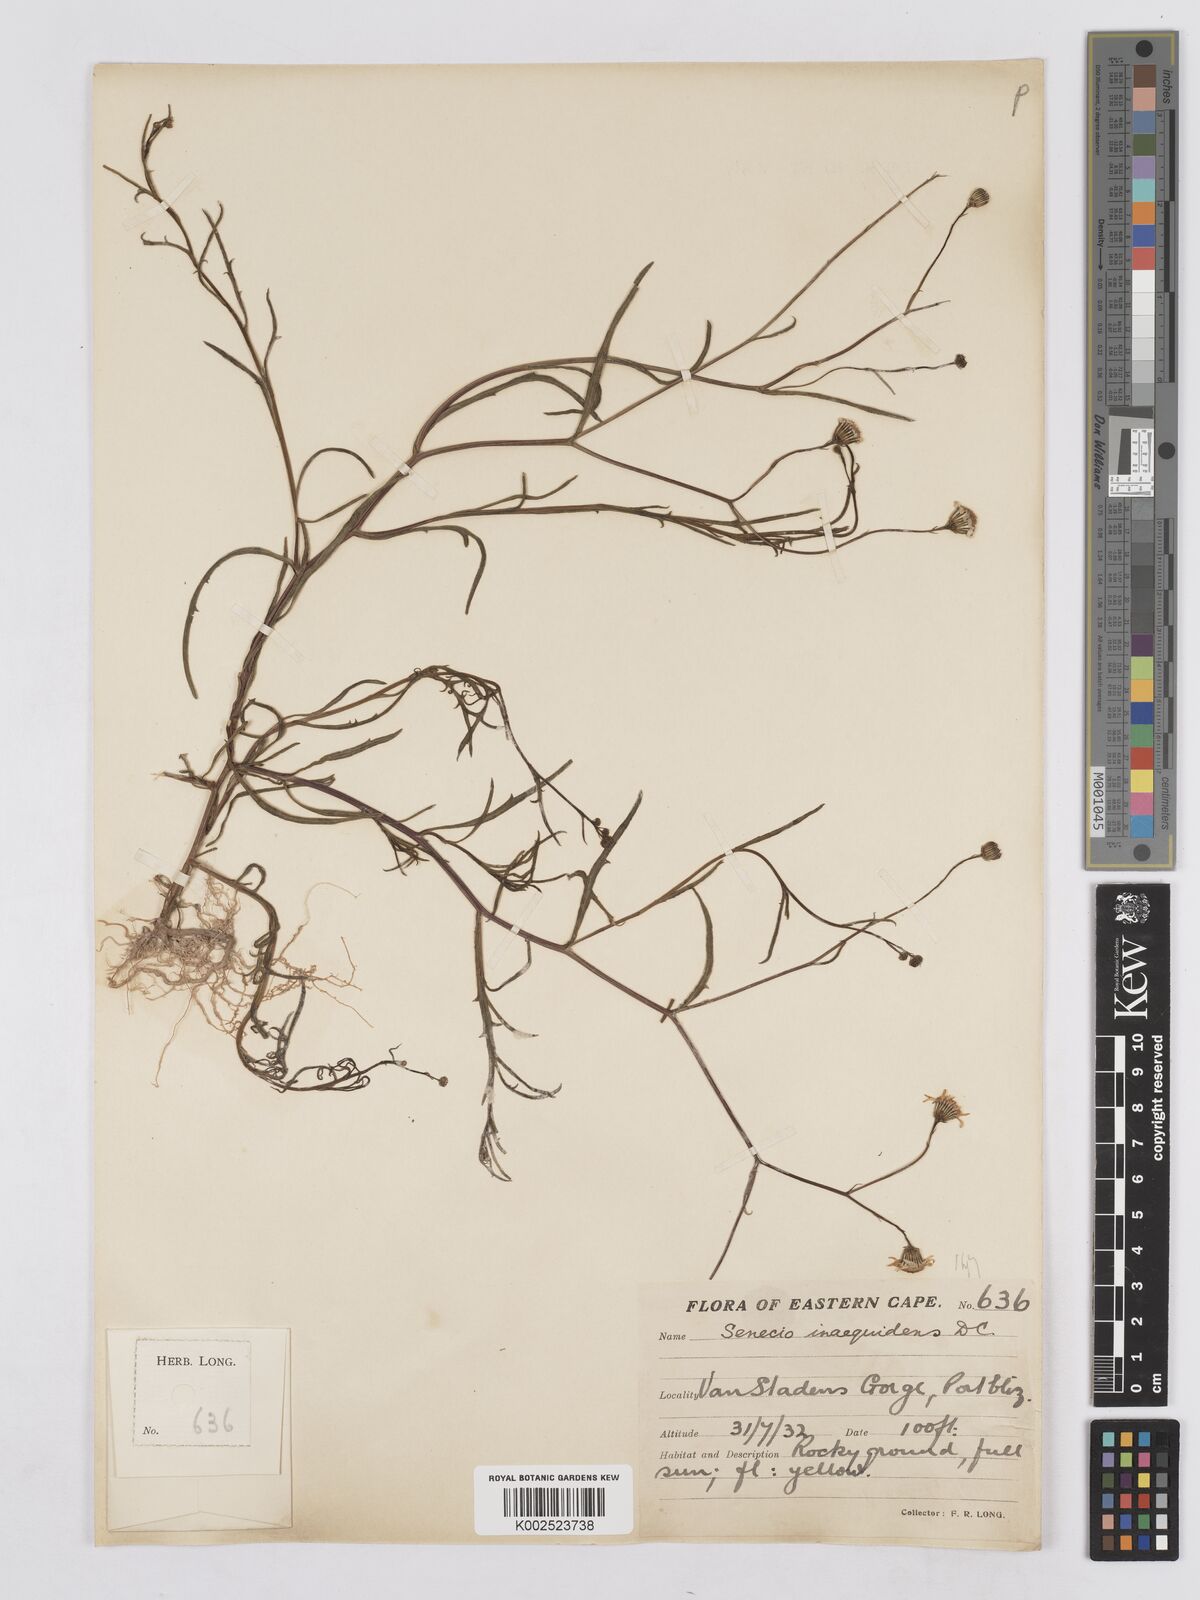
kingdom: Plantae
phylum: Tracheophyta
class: Magnoliopsida
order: Asterales
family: Asteraceae
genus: Senecio
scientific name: Senecio burchellii
